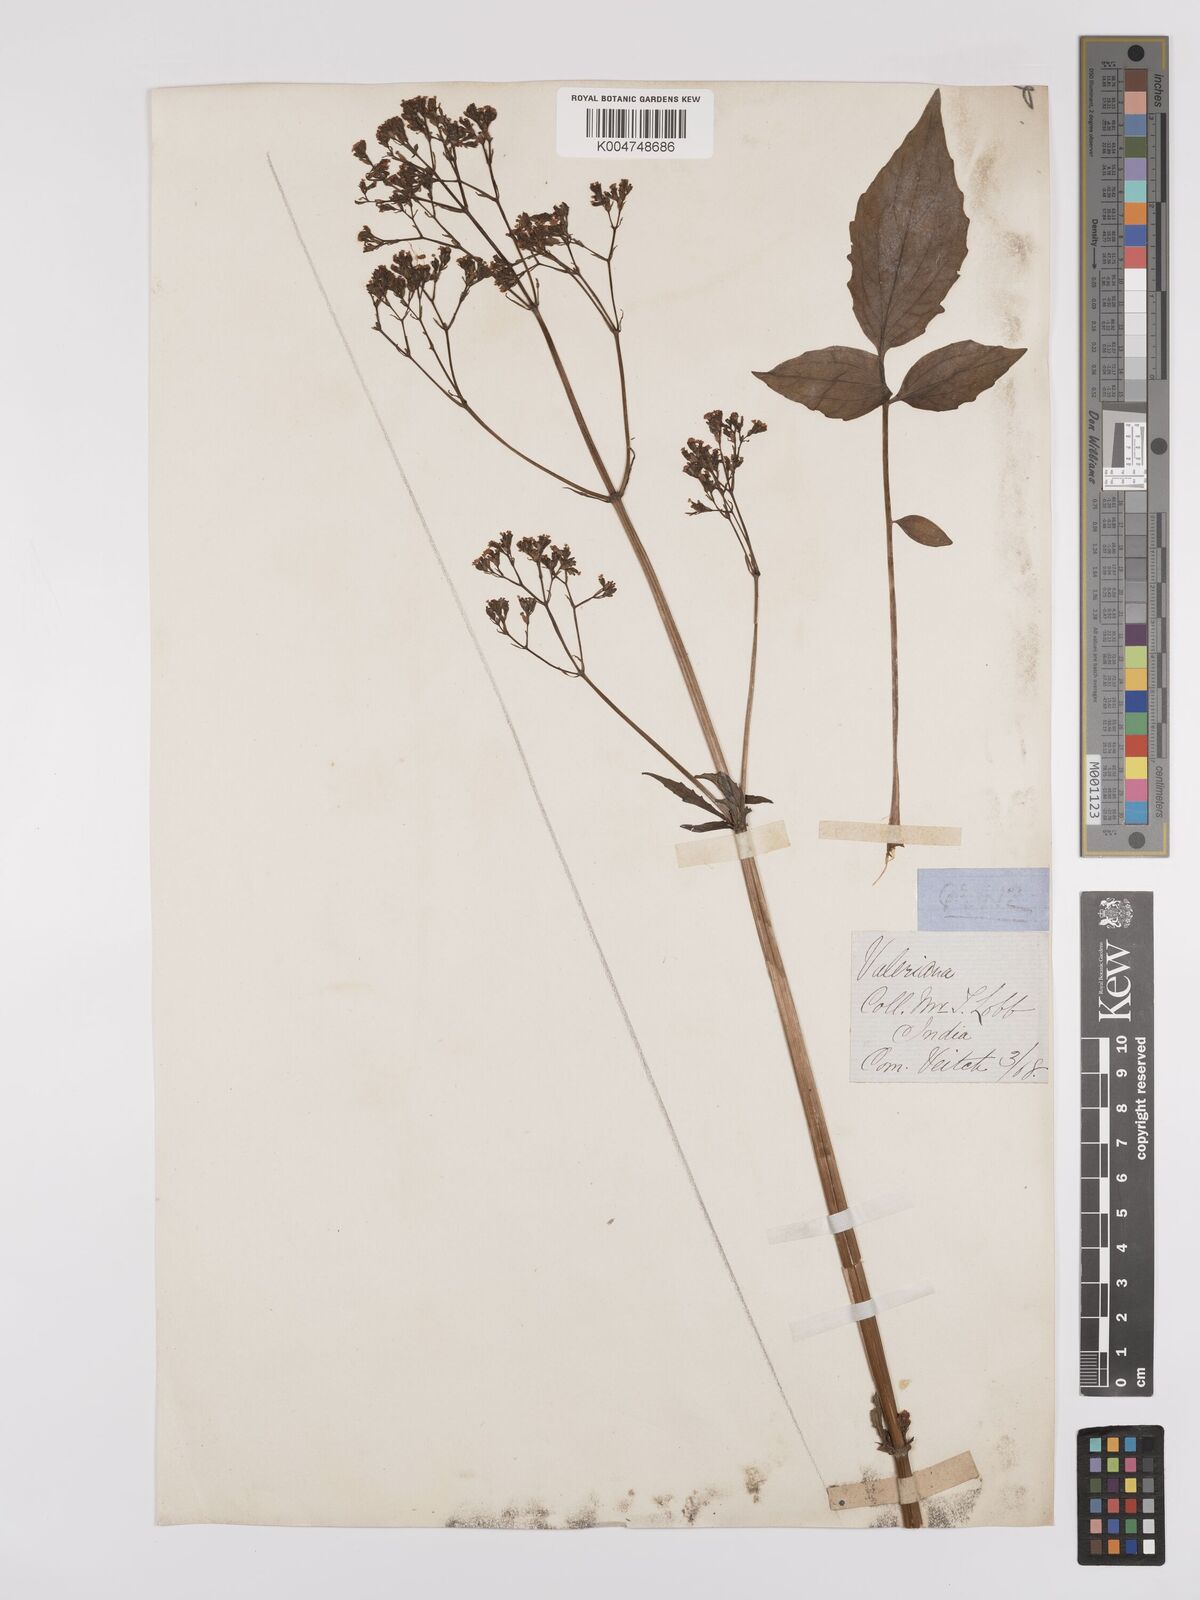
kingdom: Plantae
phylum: Tracheophyta
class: Magnoliopsida
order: Dipsacales
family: Caprifoliaceae
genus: Valeriana
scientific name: Valeriana hardwickei
